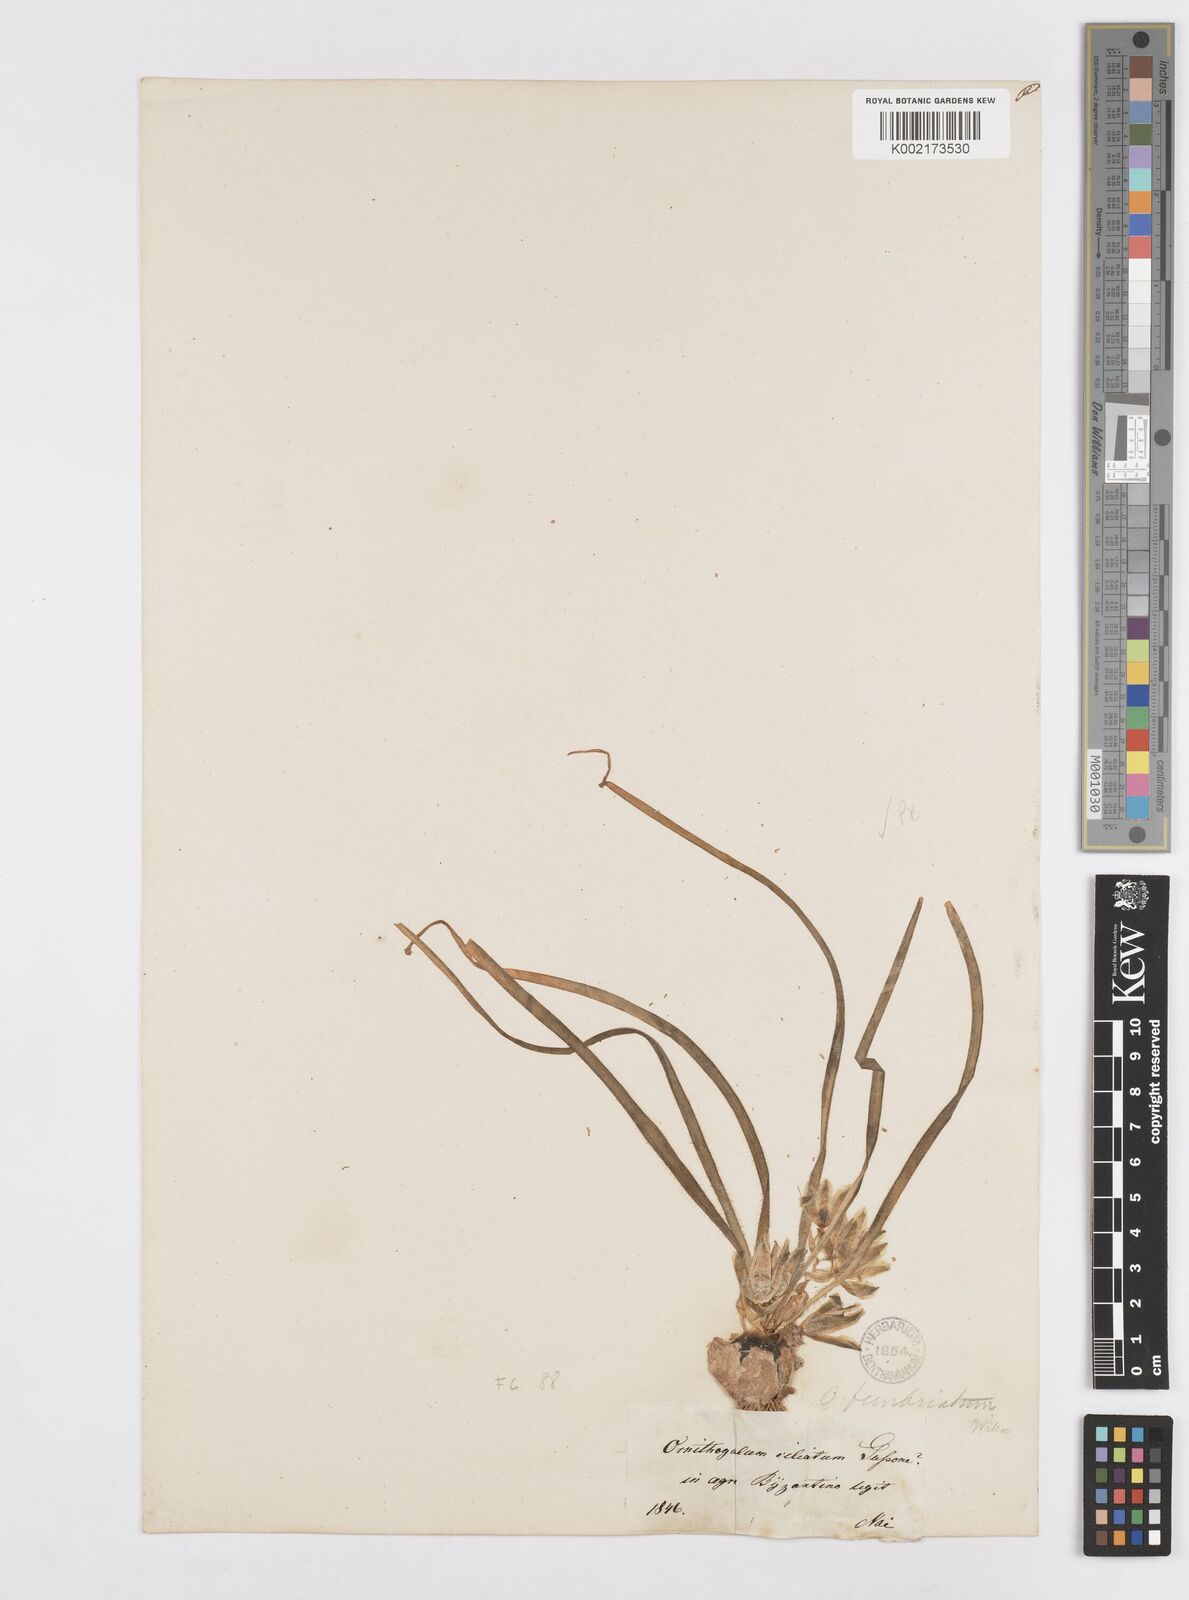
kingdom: Plantae
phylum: Tracheophyta
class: Liliopsida
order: Asparagales
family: Asparagaceae
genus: Ornithogalum
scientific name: Ornithogalum fimbriatum
